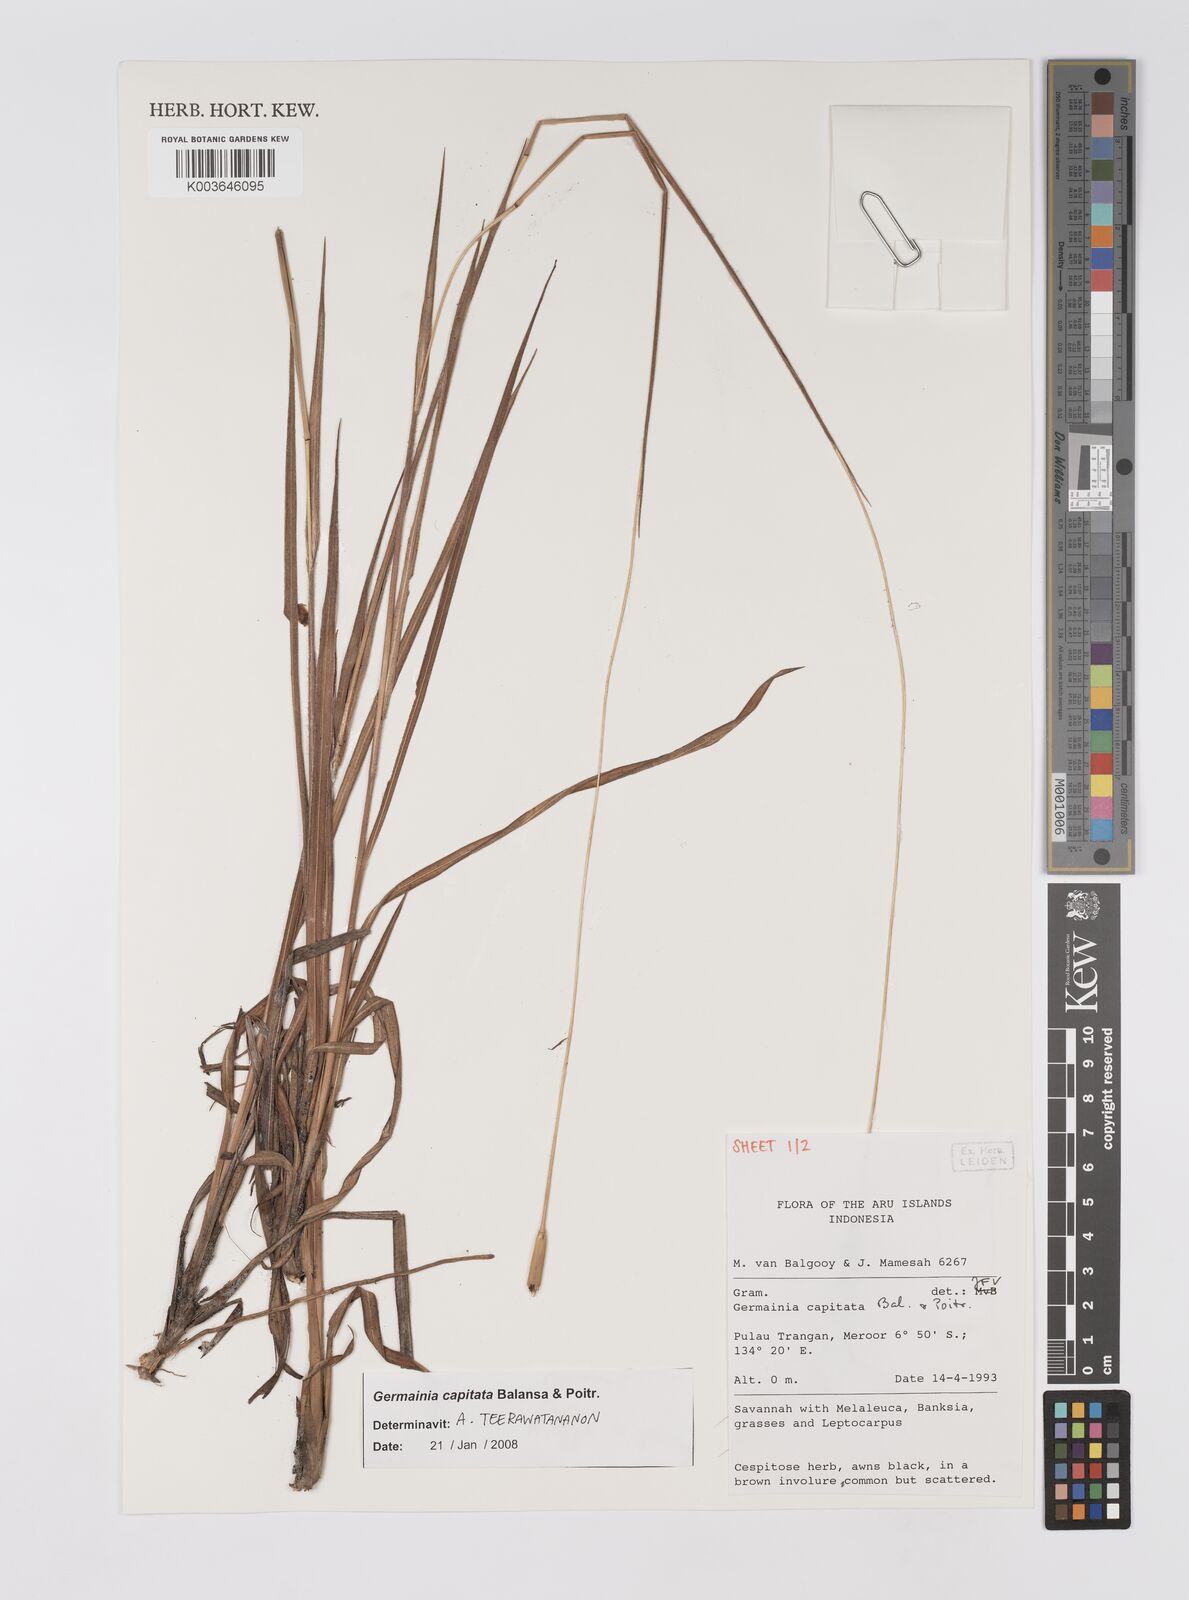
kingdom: Plantae
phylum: Tracheophyta
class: Liliopsida
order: Poales
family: Poaceae
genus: Germainia
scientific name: Germainia capitata
